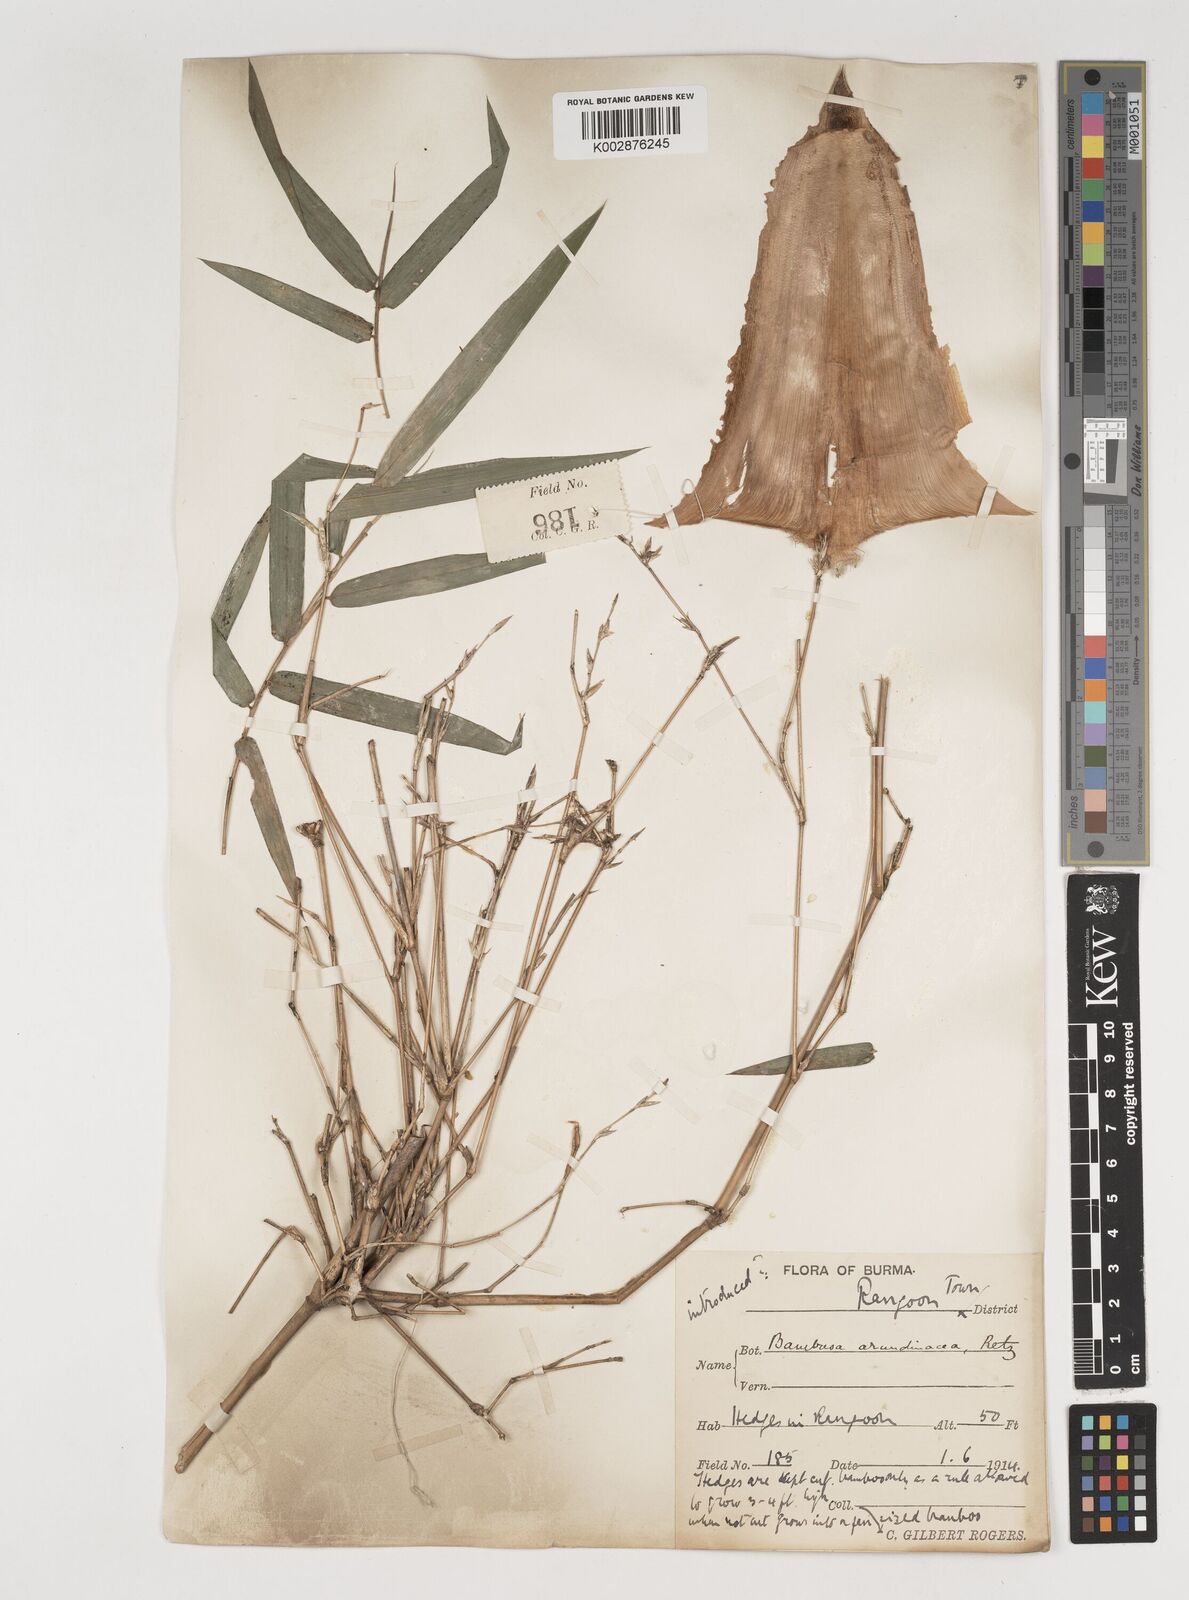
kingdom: Plantae
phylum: Tracheophyta
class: Liliopsida
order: Poales
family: Poaceae
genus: Bambusa
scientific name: Bambusa bambos
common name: Indian thorny bamboo
